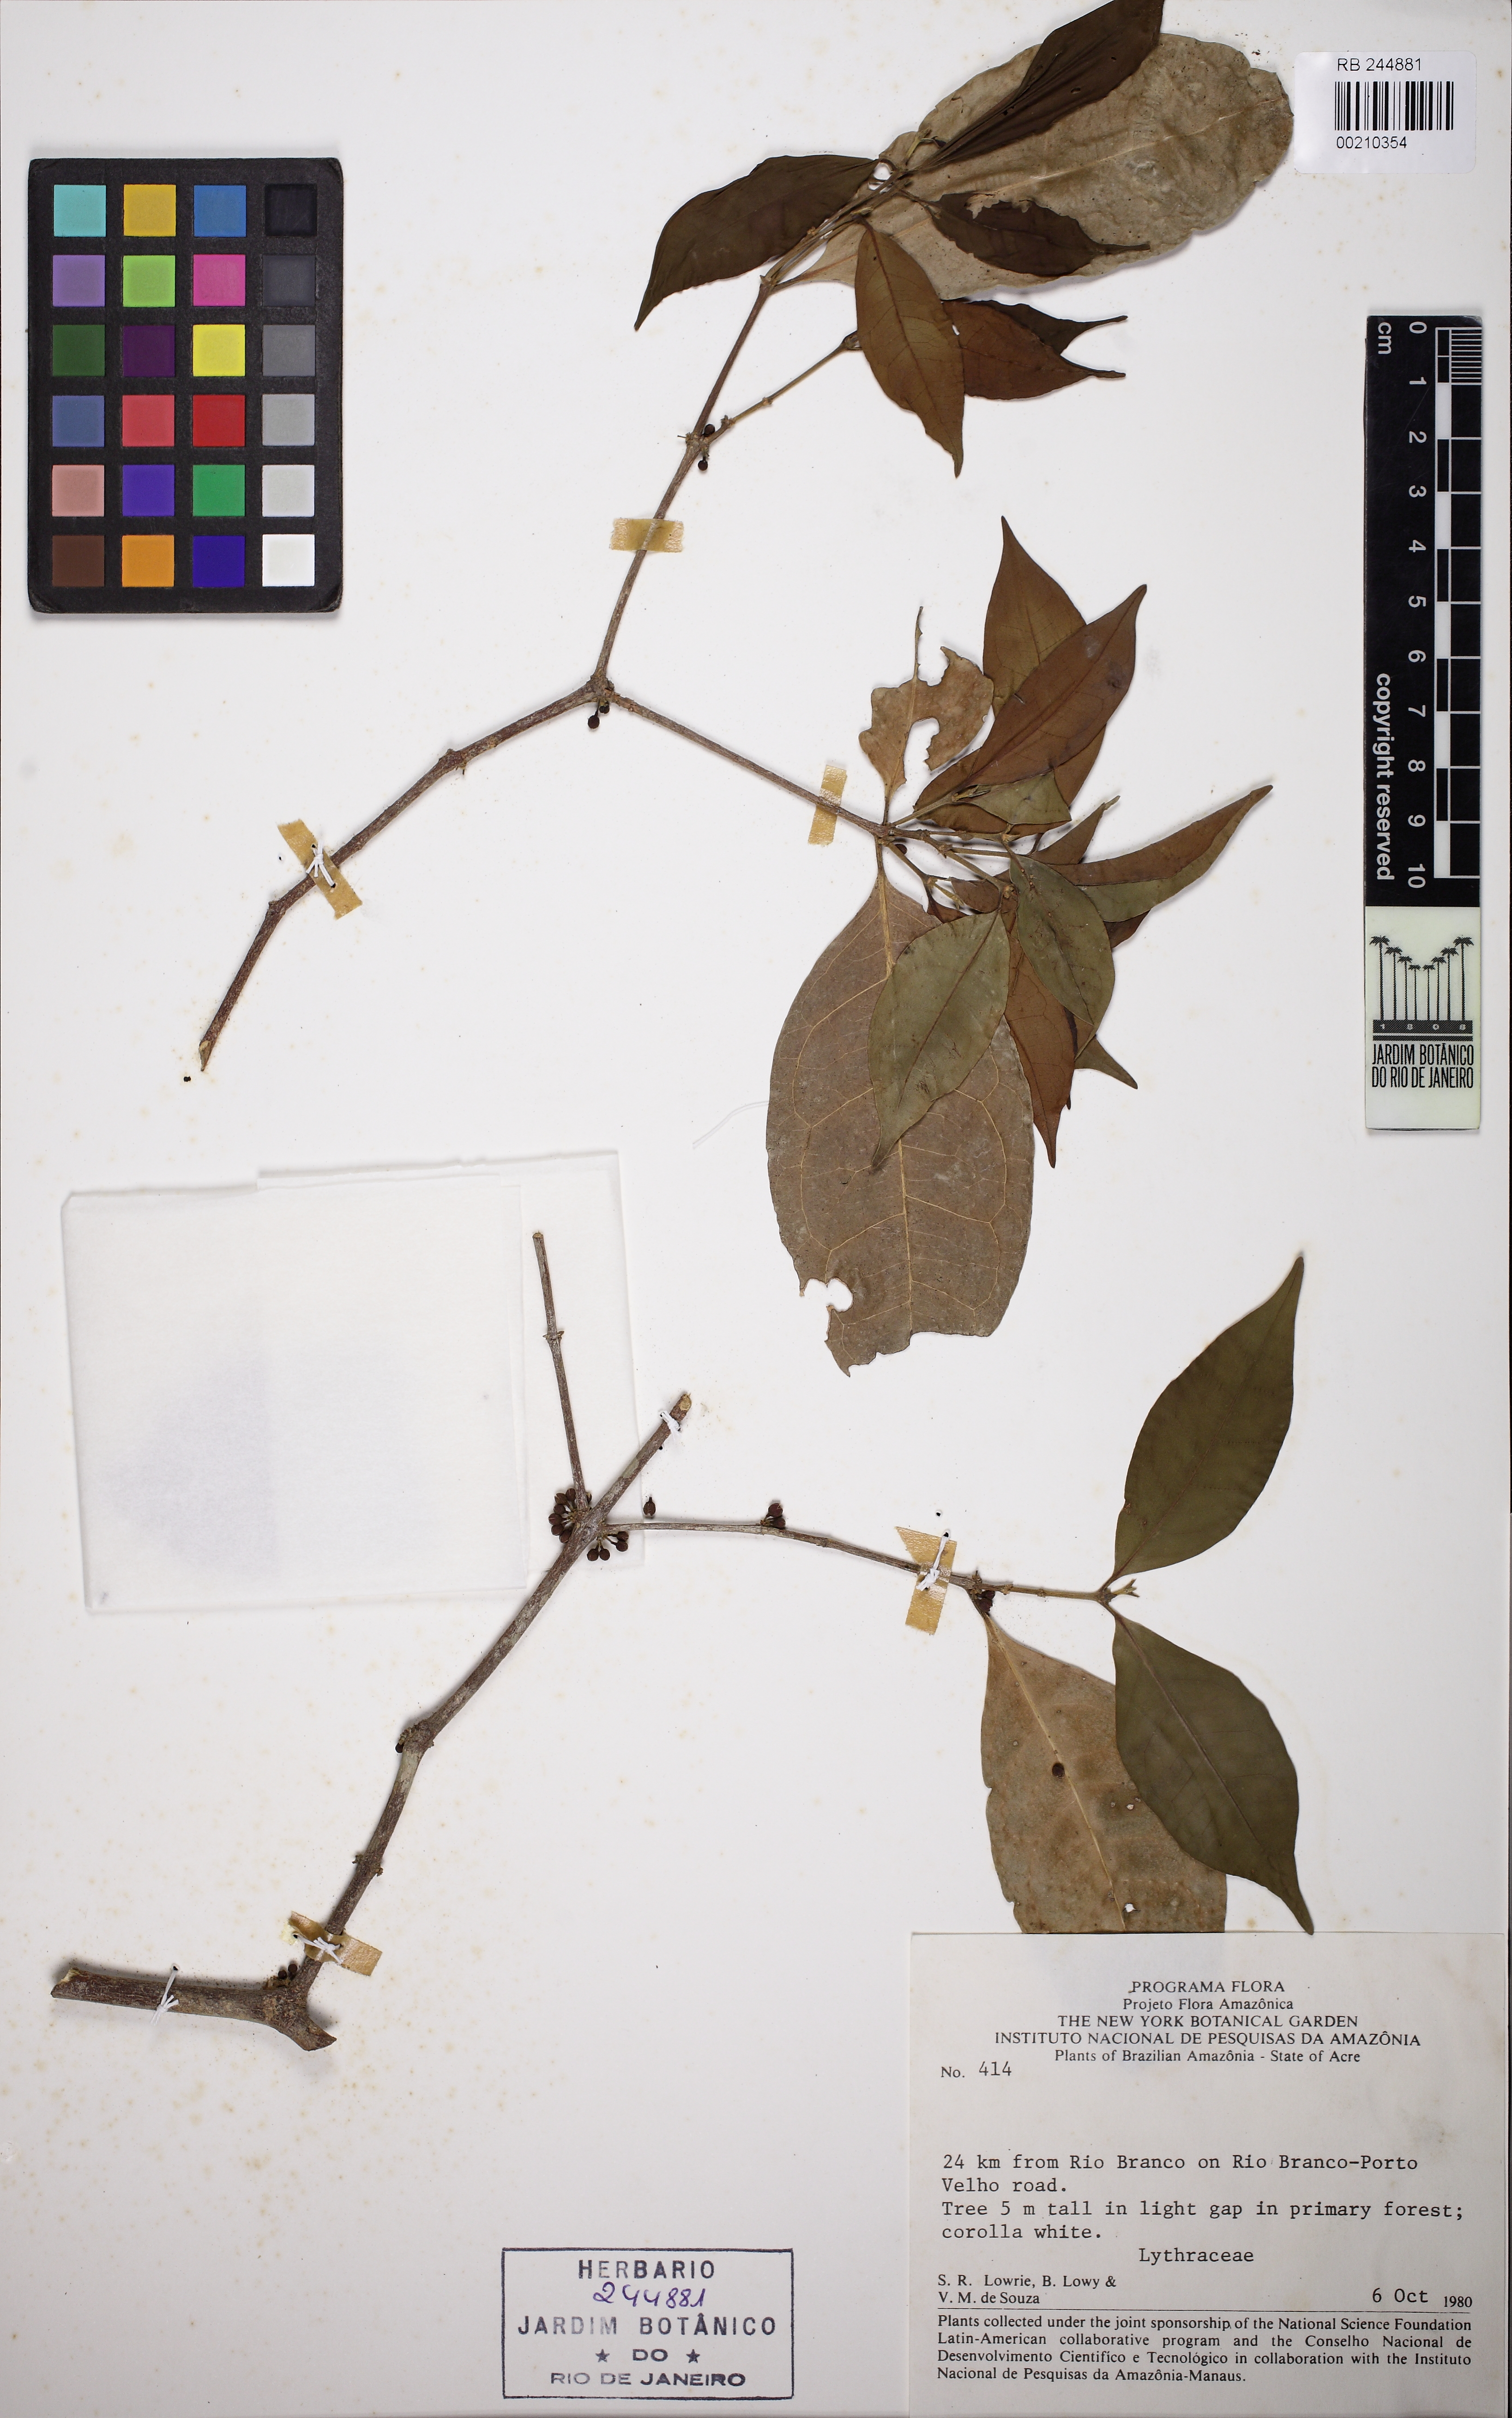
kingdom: Plantae
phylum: Tracheophyta
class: Magnoliopsida
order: Myrtales
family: Lythraceae
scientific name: Lythraceae
